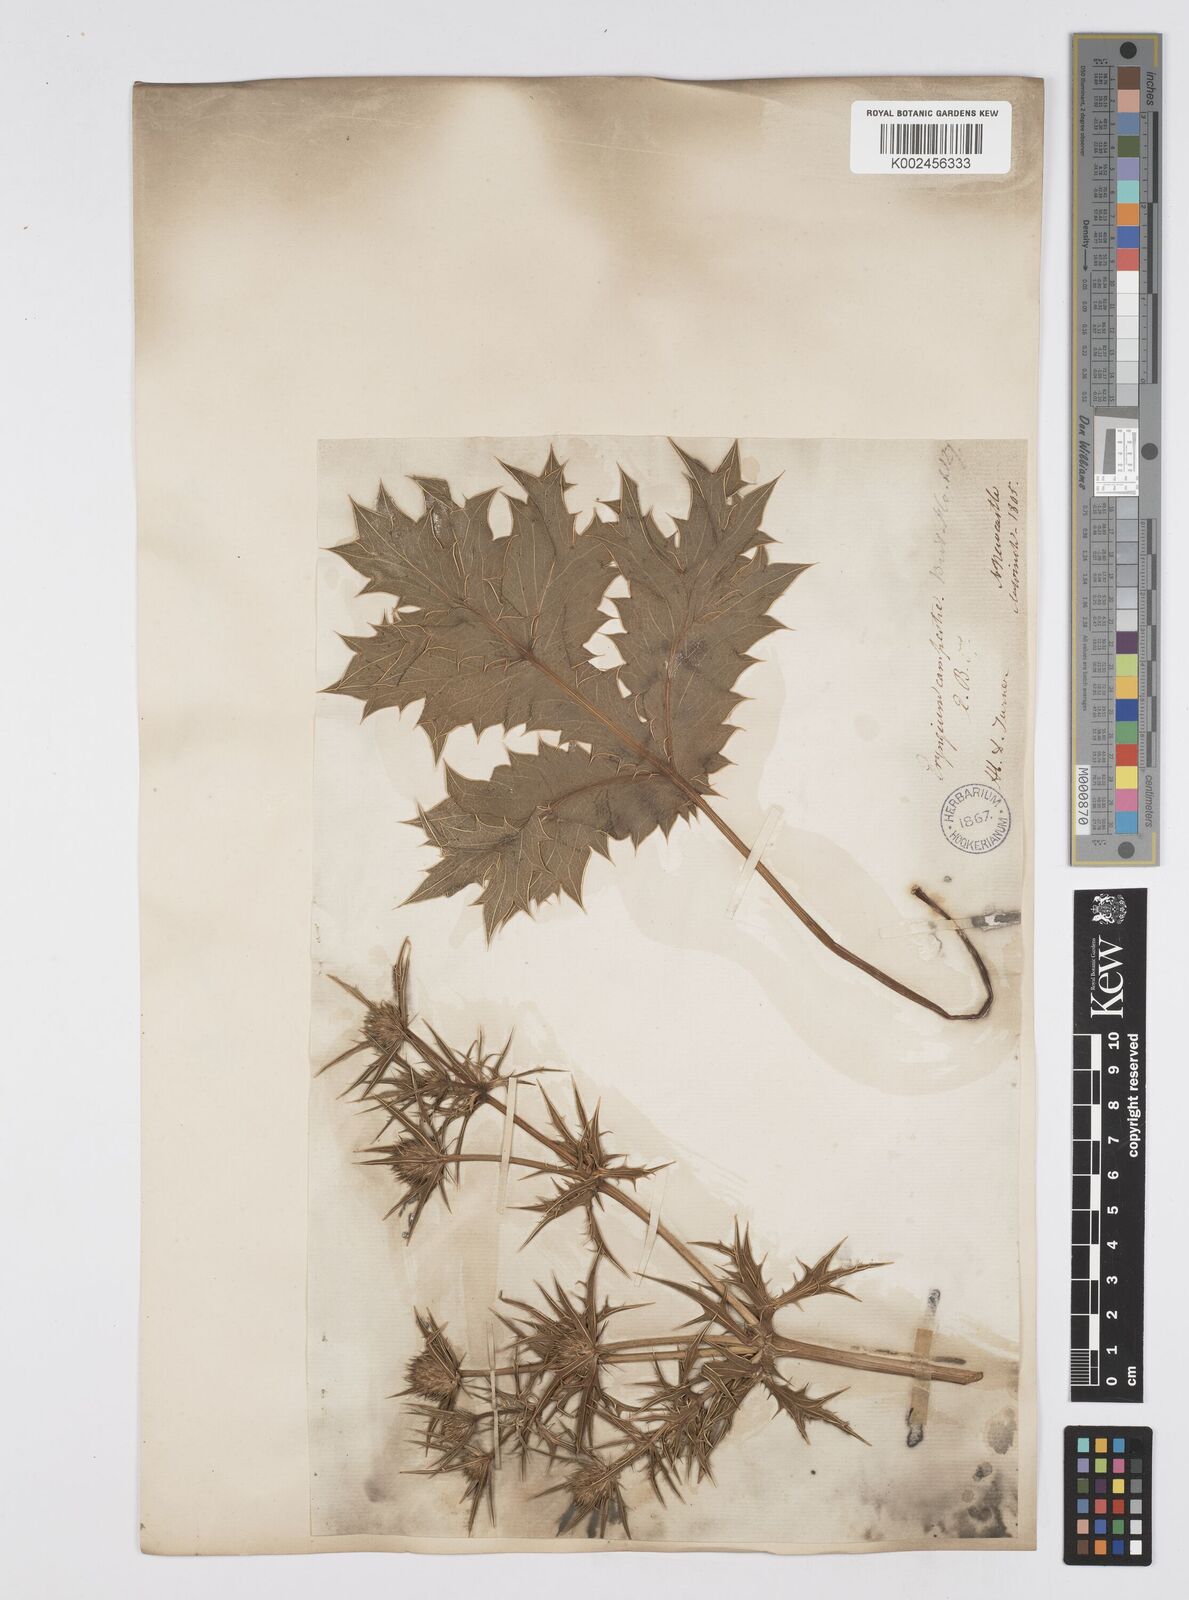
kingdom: Plantae
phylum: Tracheophyta
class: Magnoliopsida
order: Apiales
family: Apiaceae
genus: Eryngium
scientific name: Eryngium campestre
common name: Field eryngo
